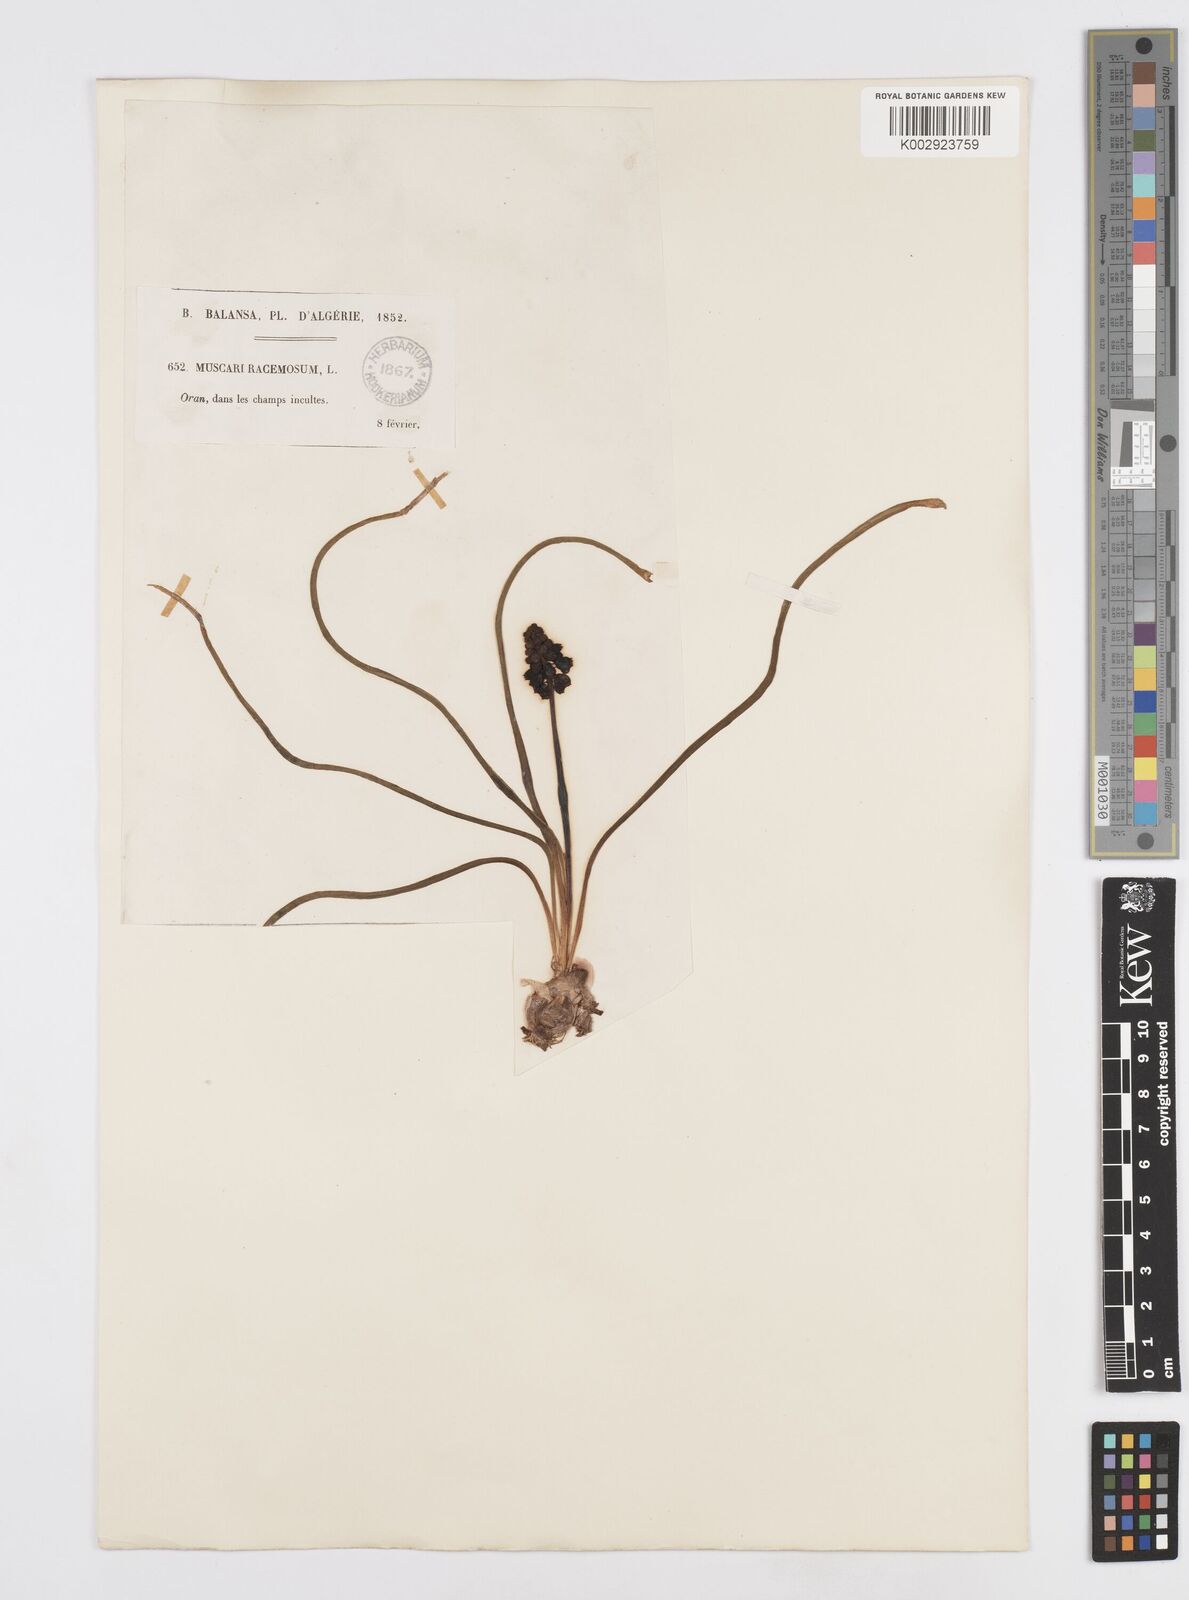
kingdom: Plantae
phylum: Tracheophyta
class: Liliopsida
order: Asparagales
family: Asparagaceae
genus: Muscari
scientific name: Muscari neglectum
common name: Grape-hyacinth
